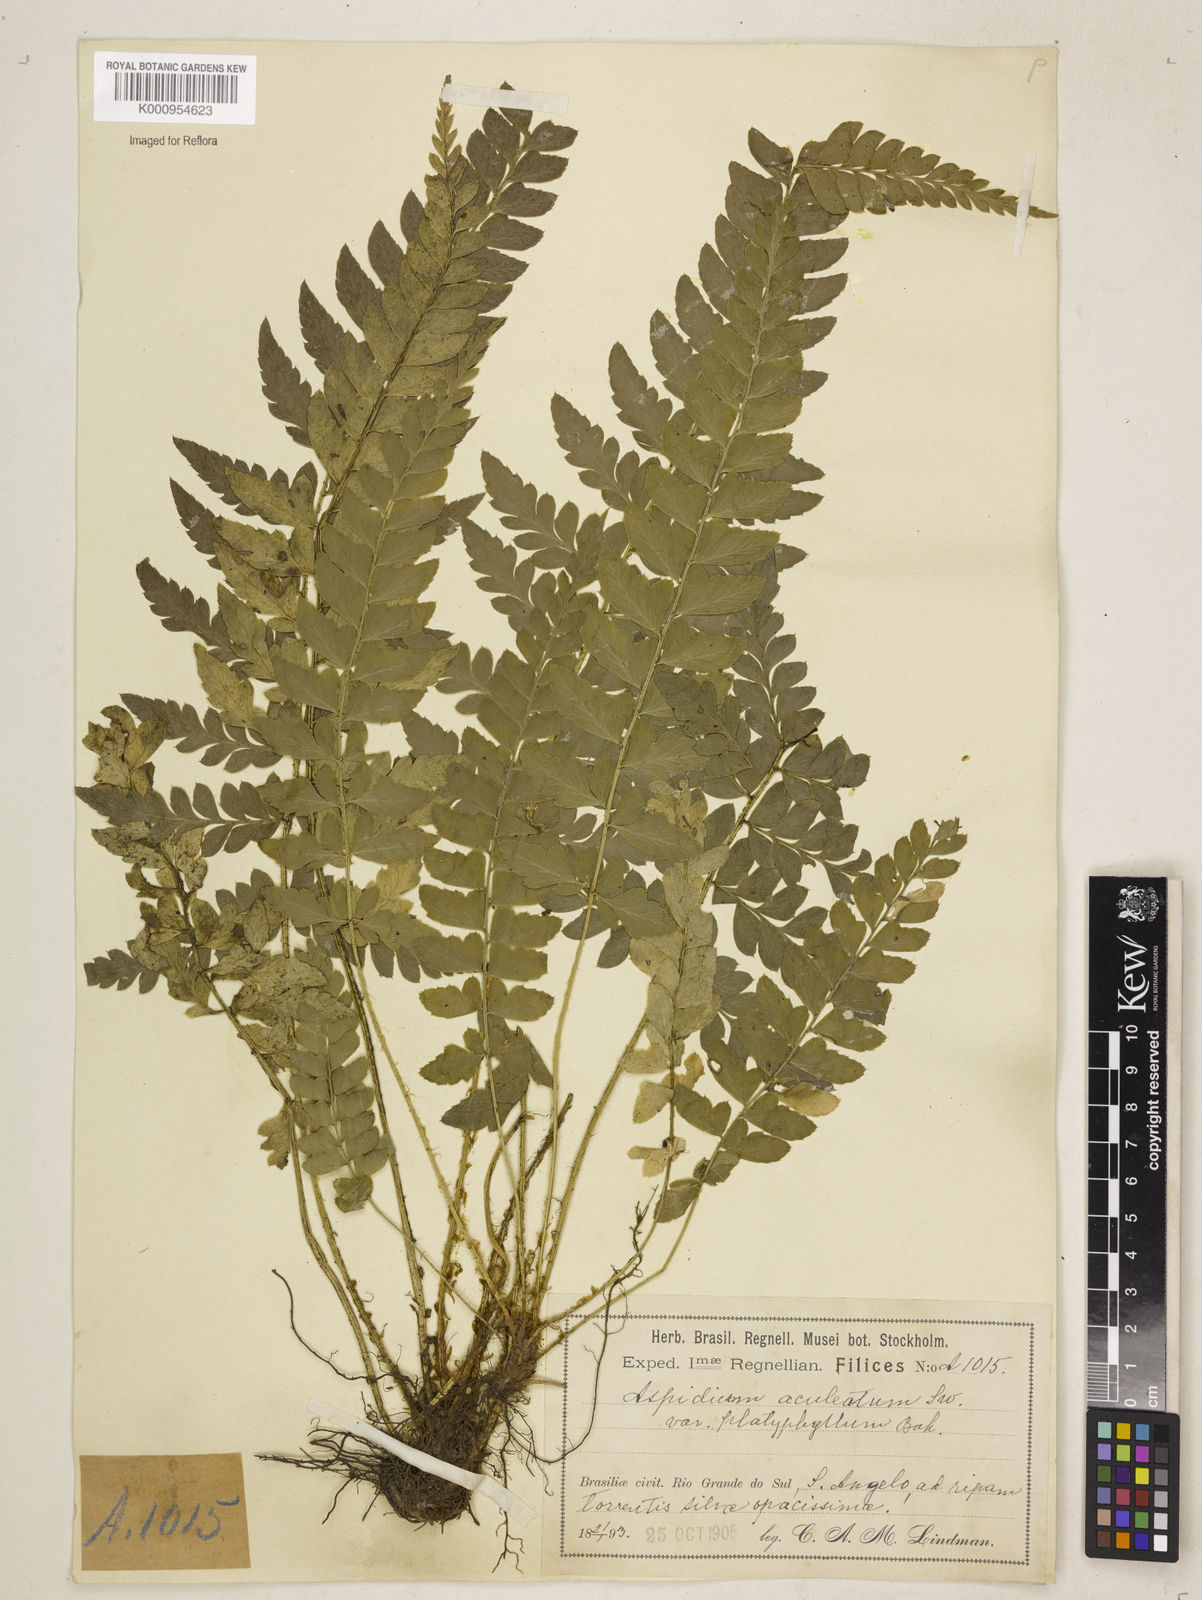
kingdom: Plantae
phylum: Tracheophyta
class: Polypodiopsida
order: Polypodiales
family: Dryopteridaceae
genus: Polystichum
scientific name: Polystichum platyphyllum
